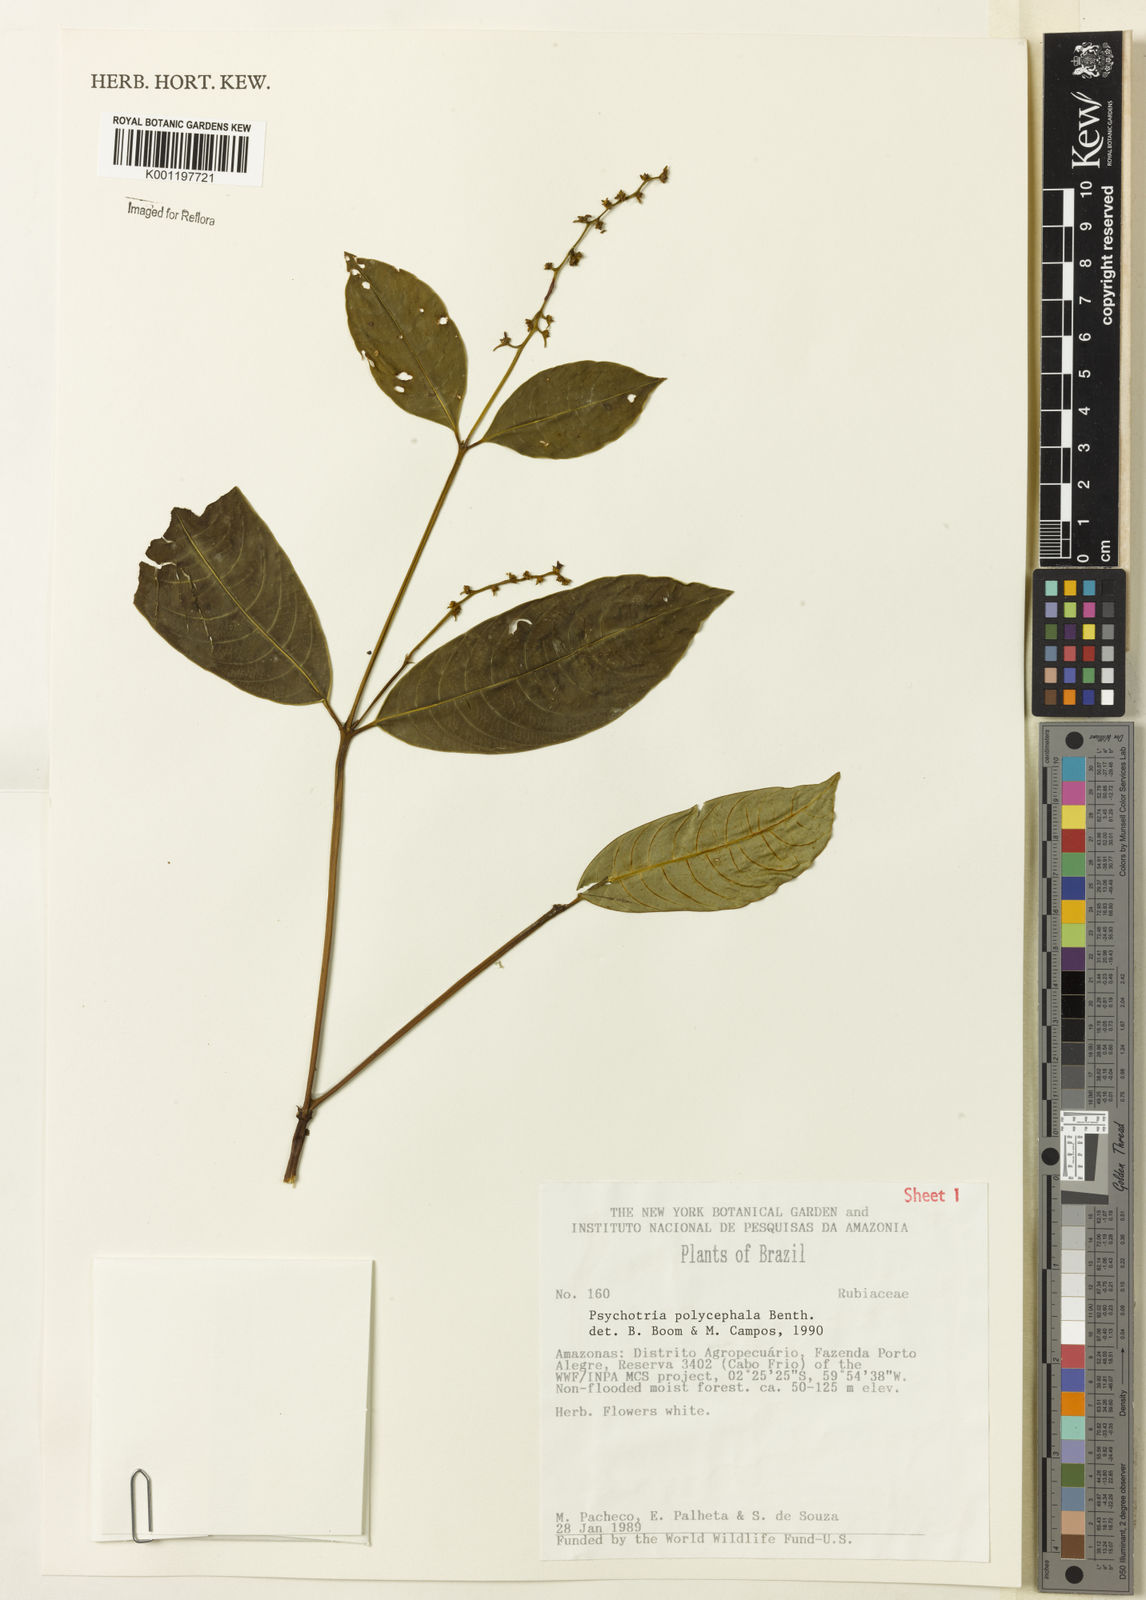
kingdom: Plantae
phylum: Tracheophyta
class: Magnoliopsida
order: Gentianales
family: Rubiaceae
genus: Palicourea
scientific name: Palicourea polycephala
